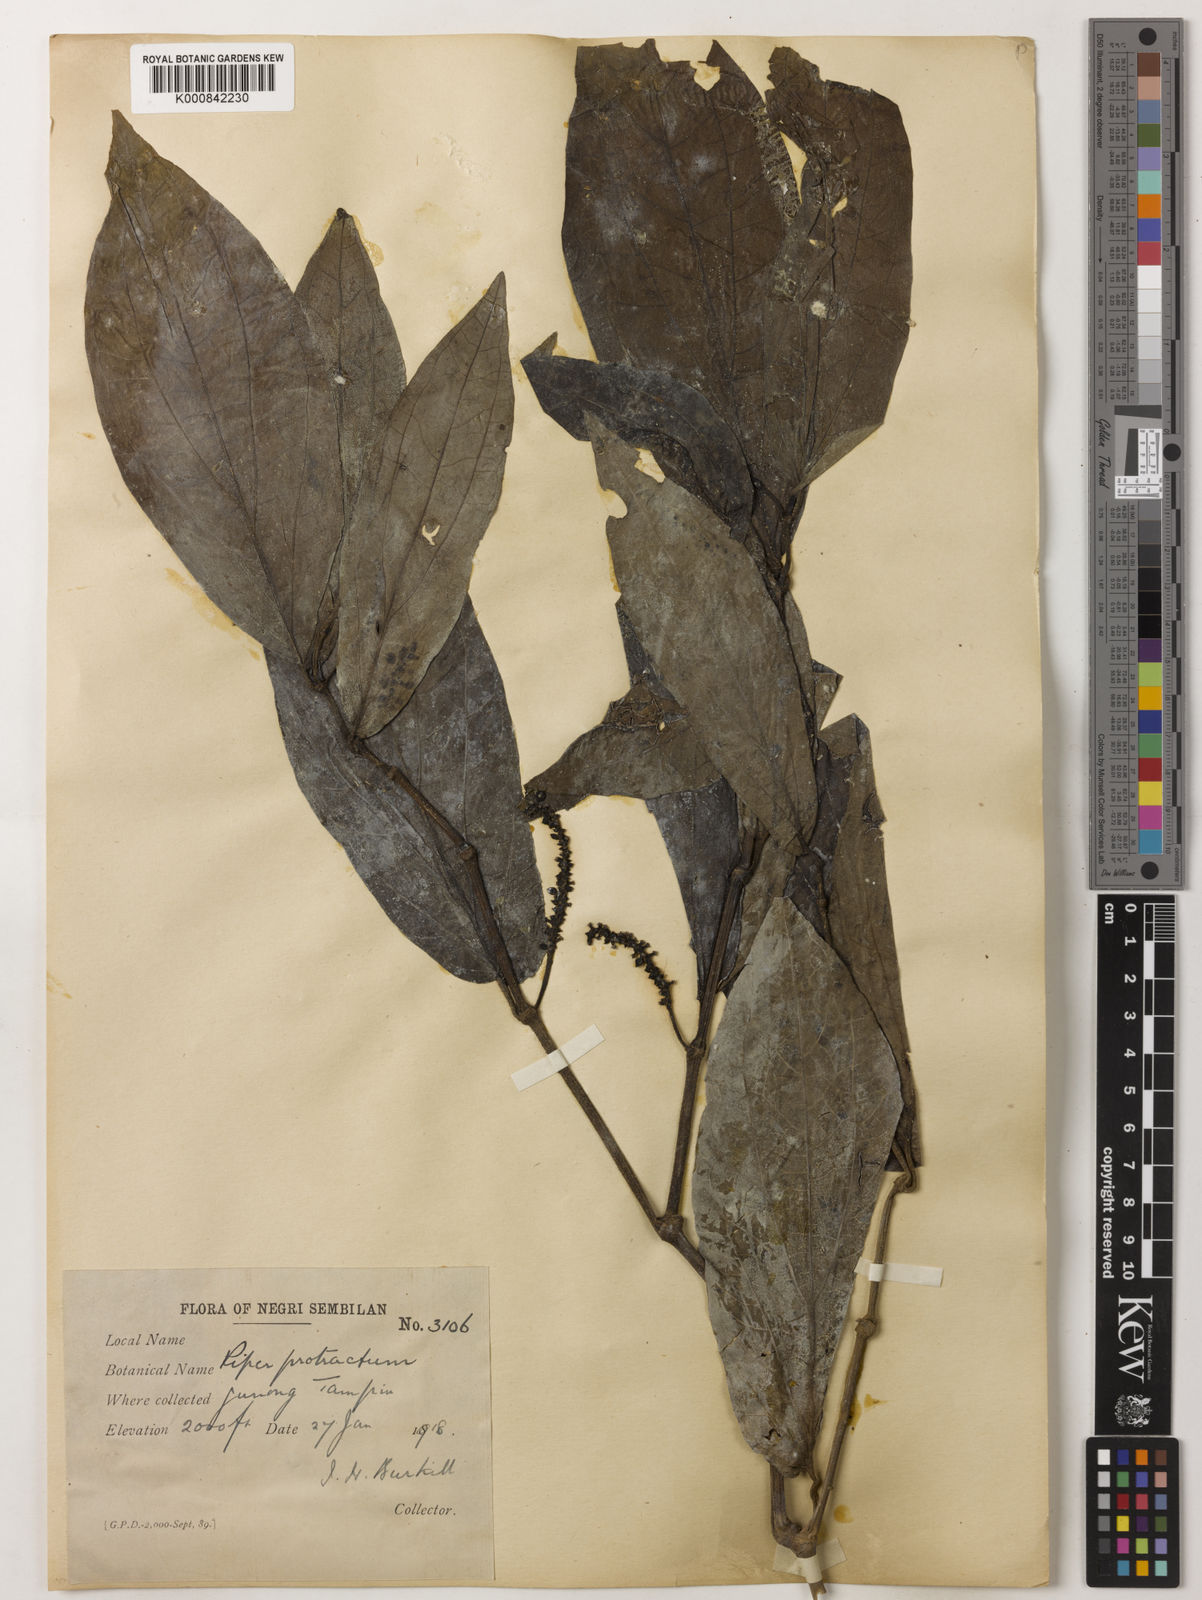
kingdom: Plantae
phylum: Tracheophyta
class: Magnoliopsida
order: Piperales
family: Piperaceae
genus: Piper
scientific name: Piper protractum
